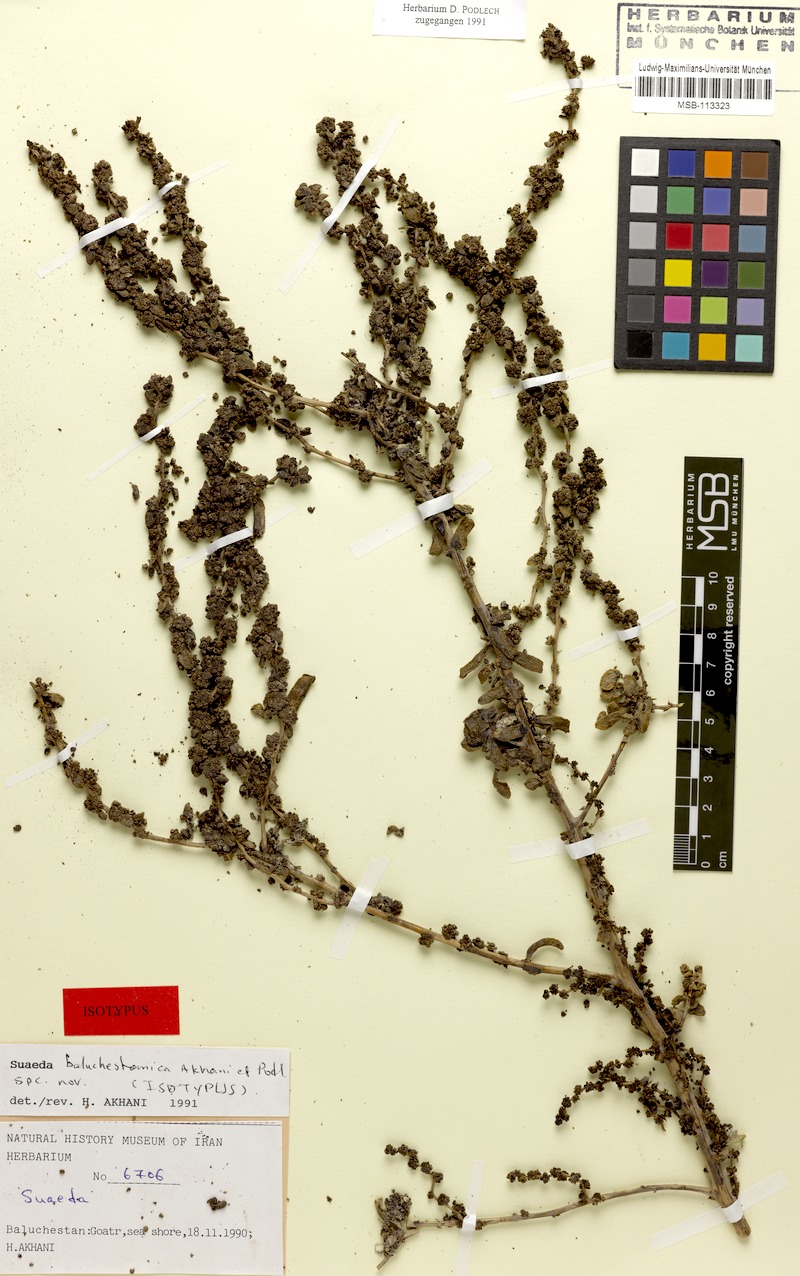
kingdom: Plantae
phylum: Tracheophyta
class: Magnoliopsida
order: Caryophyllales
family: Amaranthaceae
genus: Suaeda
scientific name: Suaeda monoica
